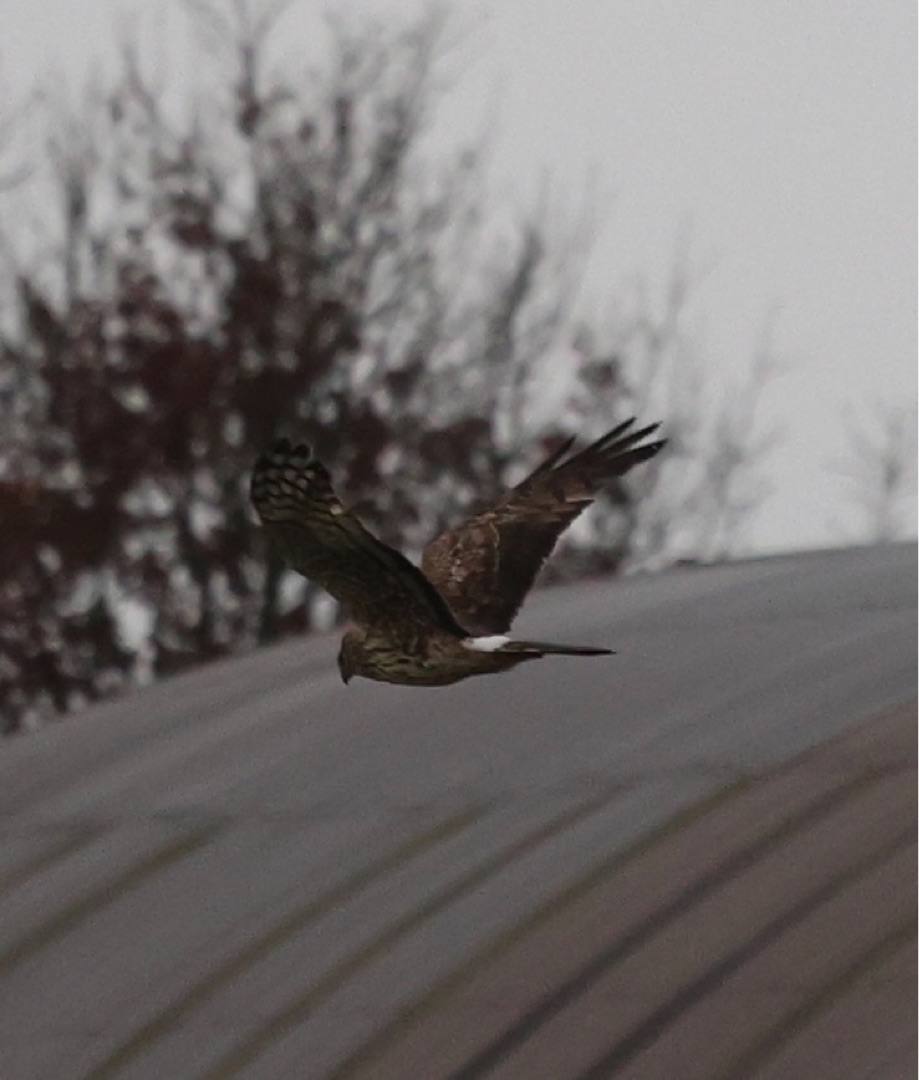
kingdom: Animalia
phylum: Chordata
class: Aves
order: Accipitriformes
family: Accipitridae
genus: Circus
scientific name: Circus cyaneus
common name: Blå kærhøg
